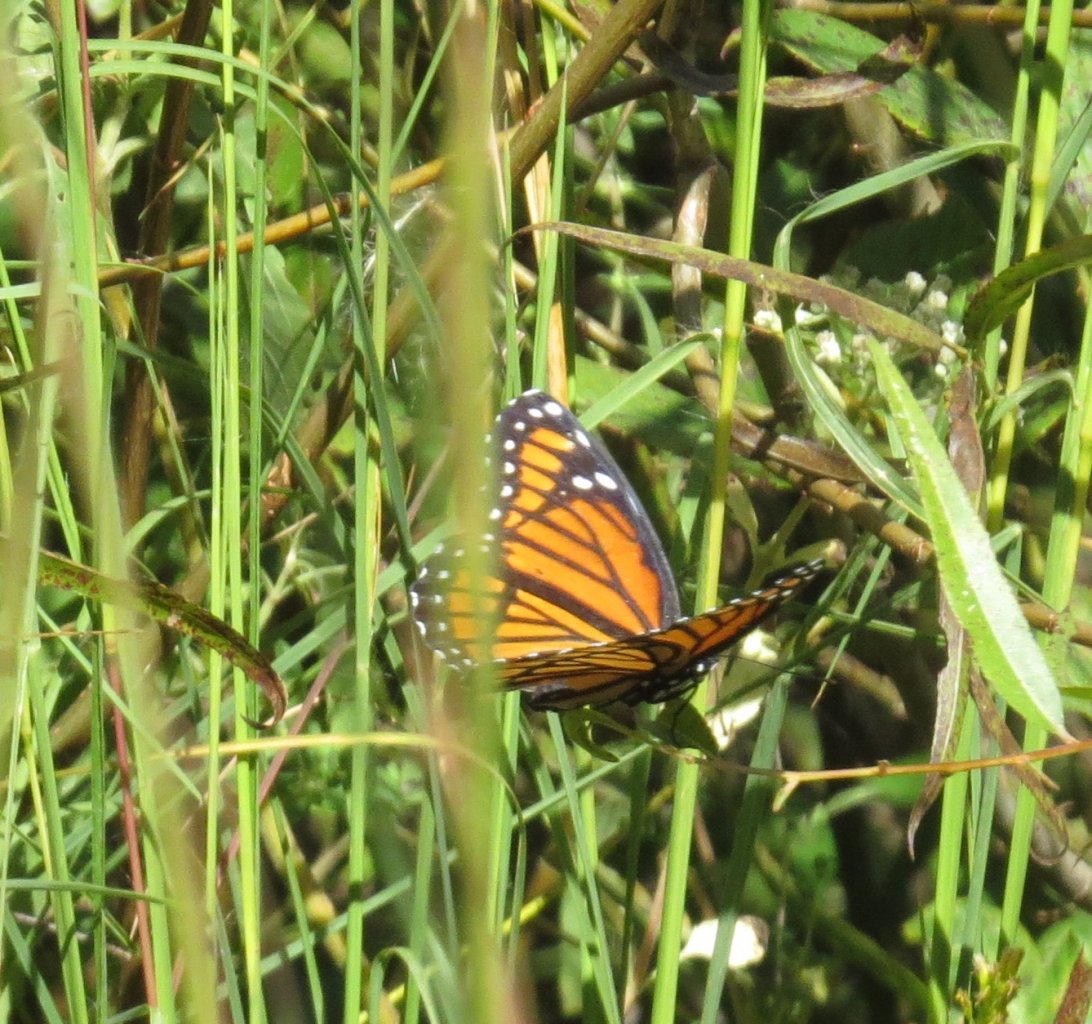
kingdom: Animalia
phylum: Arthropoda
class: Insecta
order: Lepidoptera
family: Nymphalidae
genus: Limenitis
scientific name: Limenitis archippus
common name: Viceroy
